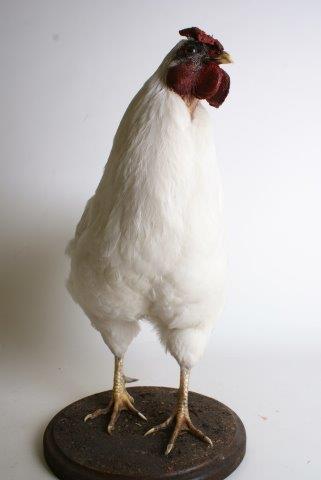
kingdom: Animalia
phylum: Chordata
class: Aves
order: Galliformes
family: Phasianidae
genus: Gallus
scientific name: Gallus gallus
